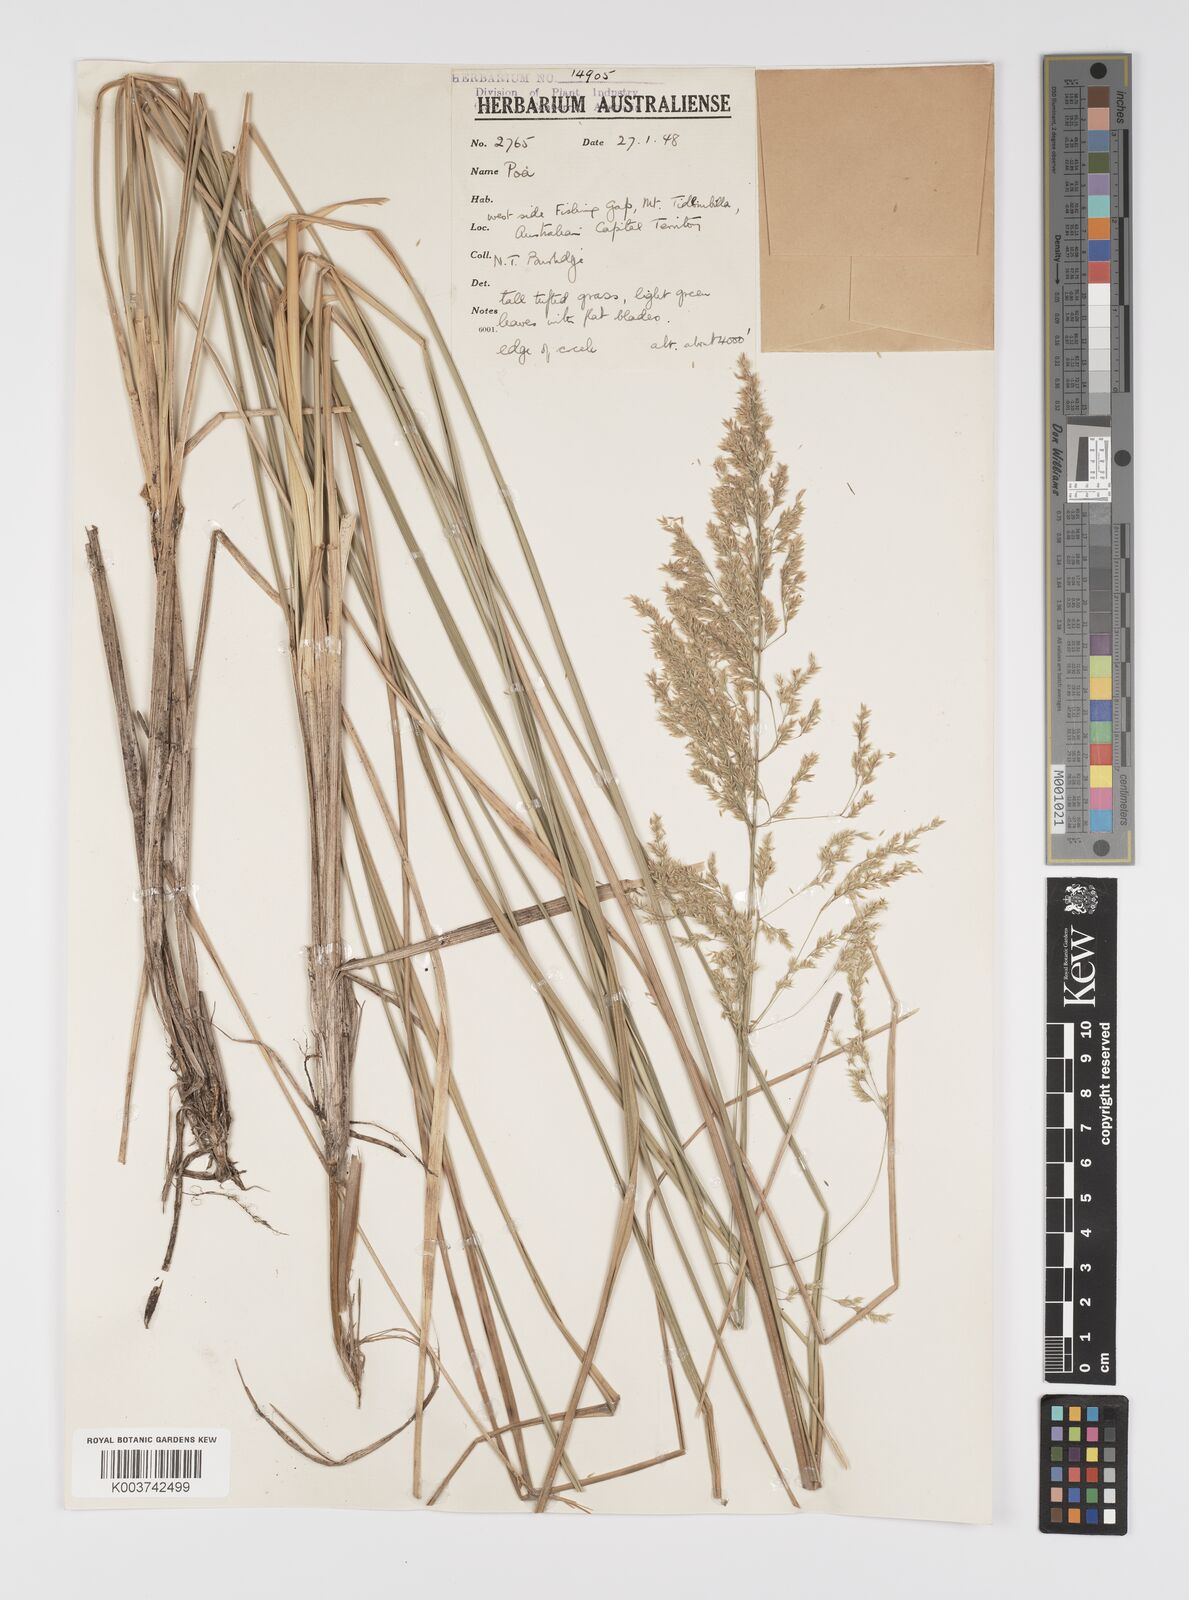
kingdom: Plantae
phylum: Tracheophyta
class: Liliopsida
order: Poales
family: Poaceae
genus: Poa
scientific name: Poa
